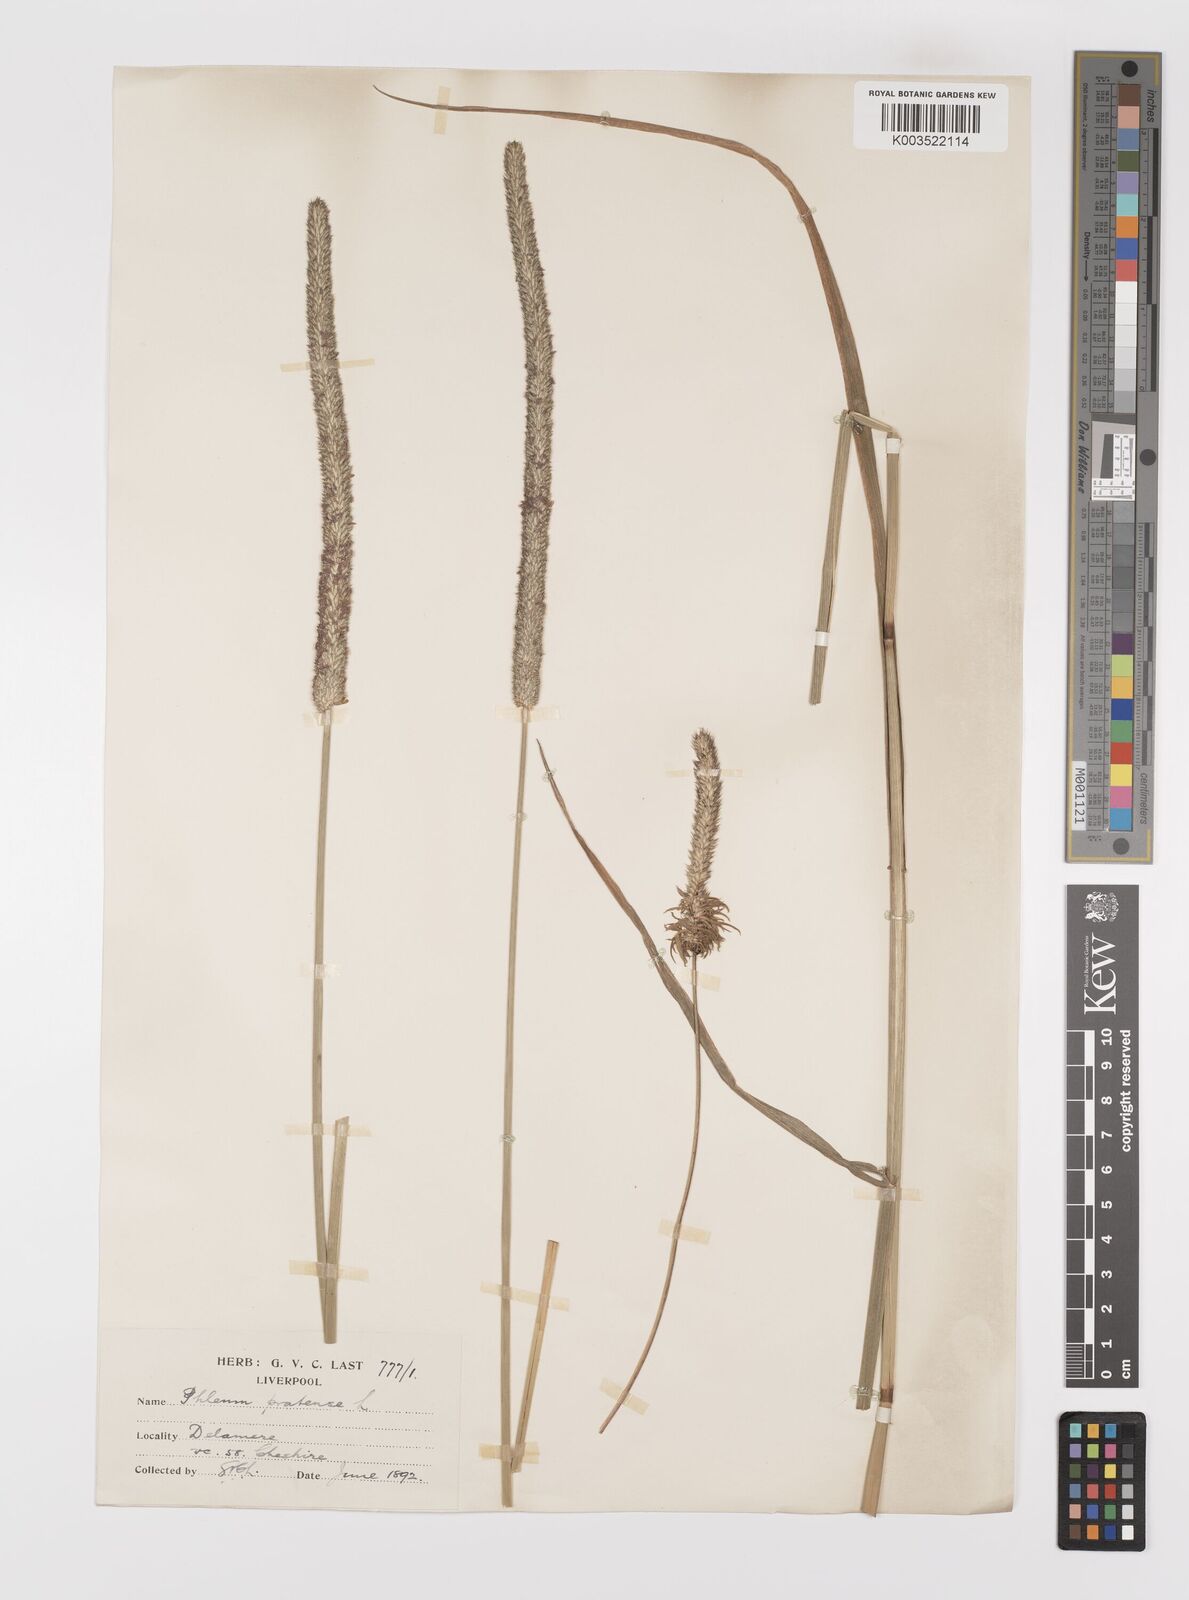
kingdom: Plantae
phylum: Tracheophyta
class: Liliopsida
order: Poales
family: Poaceae
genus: Phleum
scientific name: Phleum pratense
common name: Timothy grass
